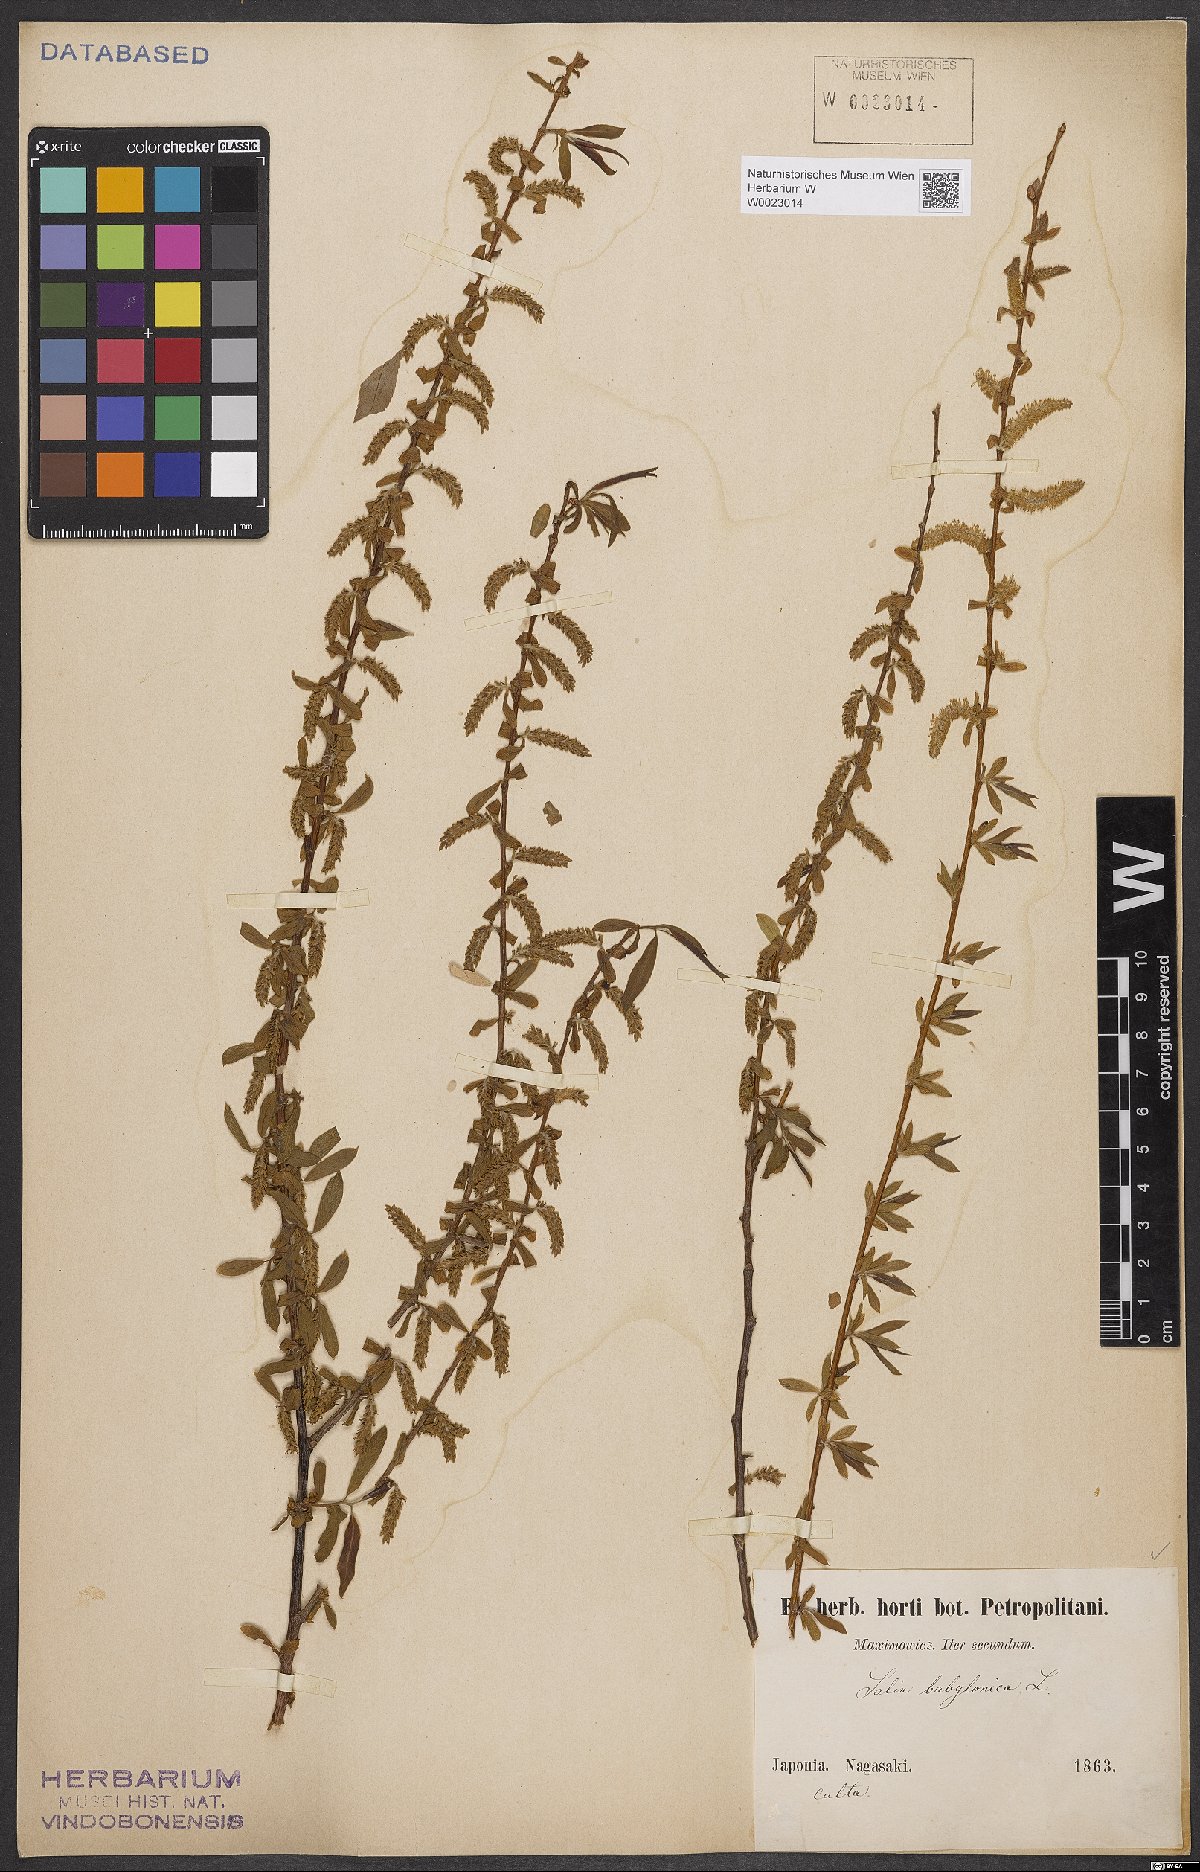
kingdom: Plantae
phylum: Tracheophyta
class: Magnoliopsida
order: Malpighiales
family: Salicaceae
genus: Salix
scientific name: Salix babylonica
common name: Weeping willow
